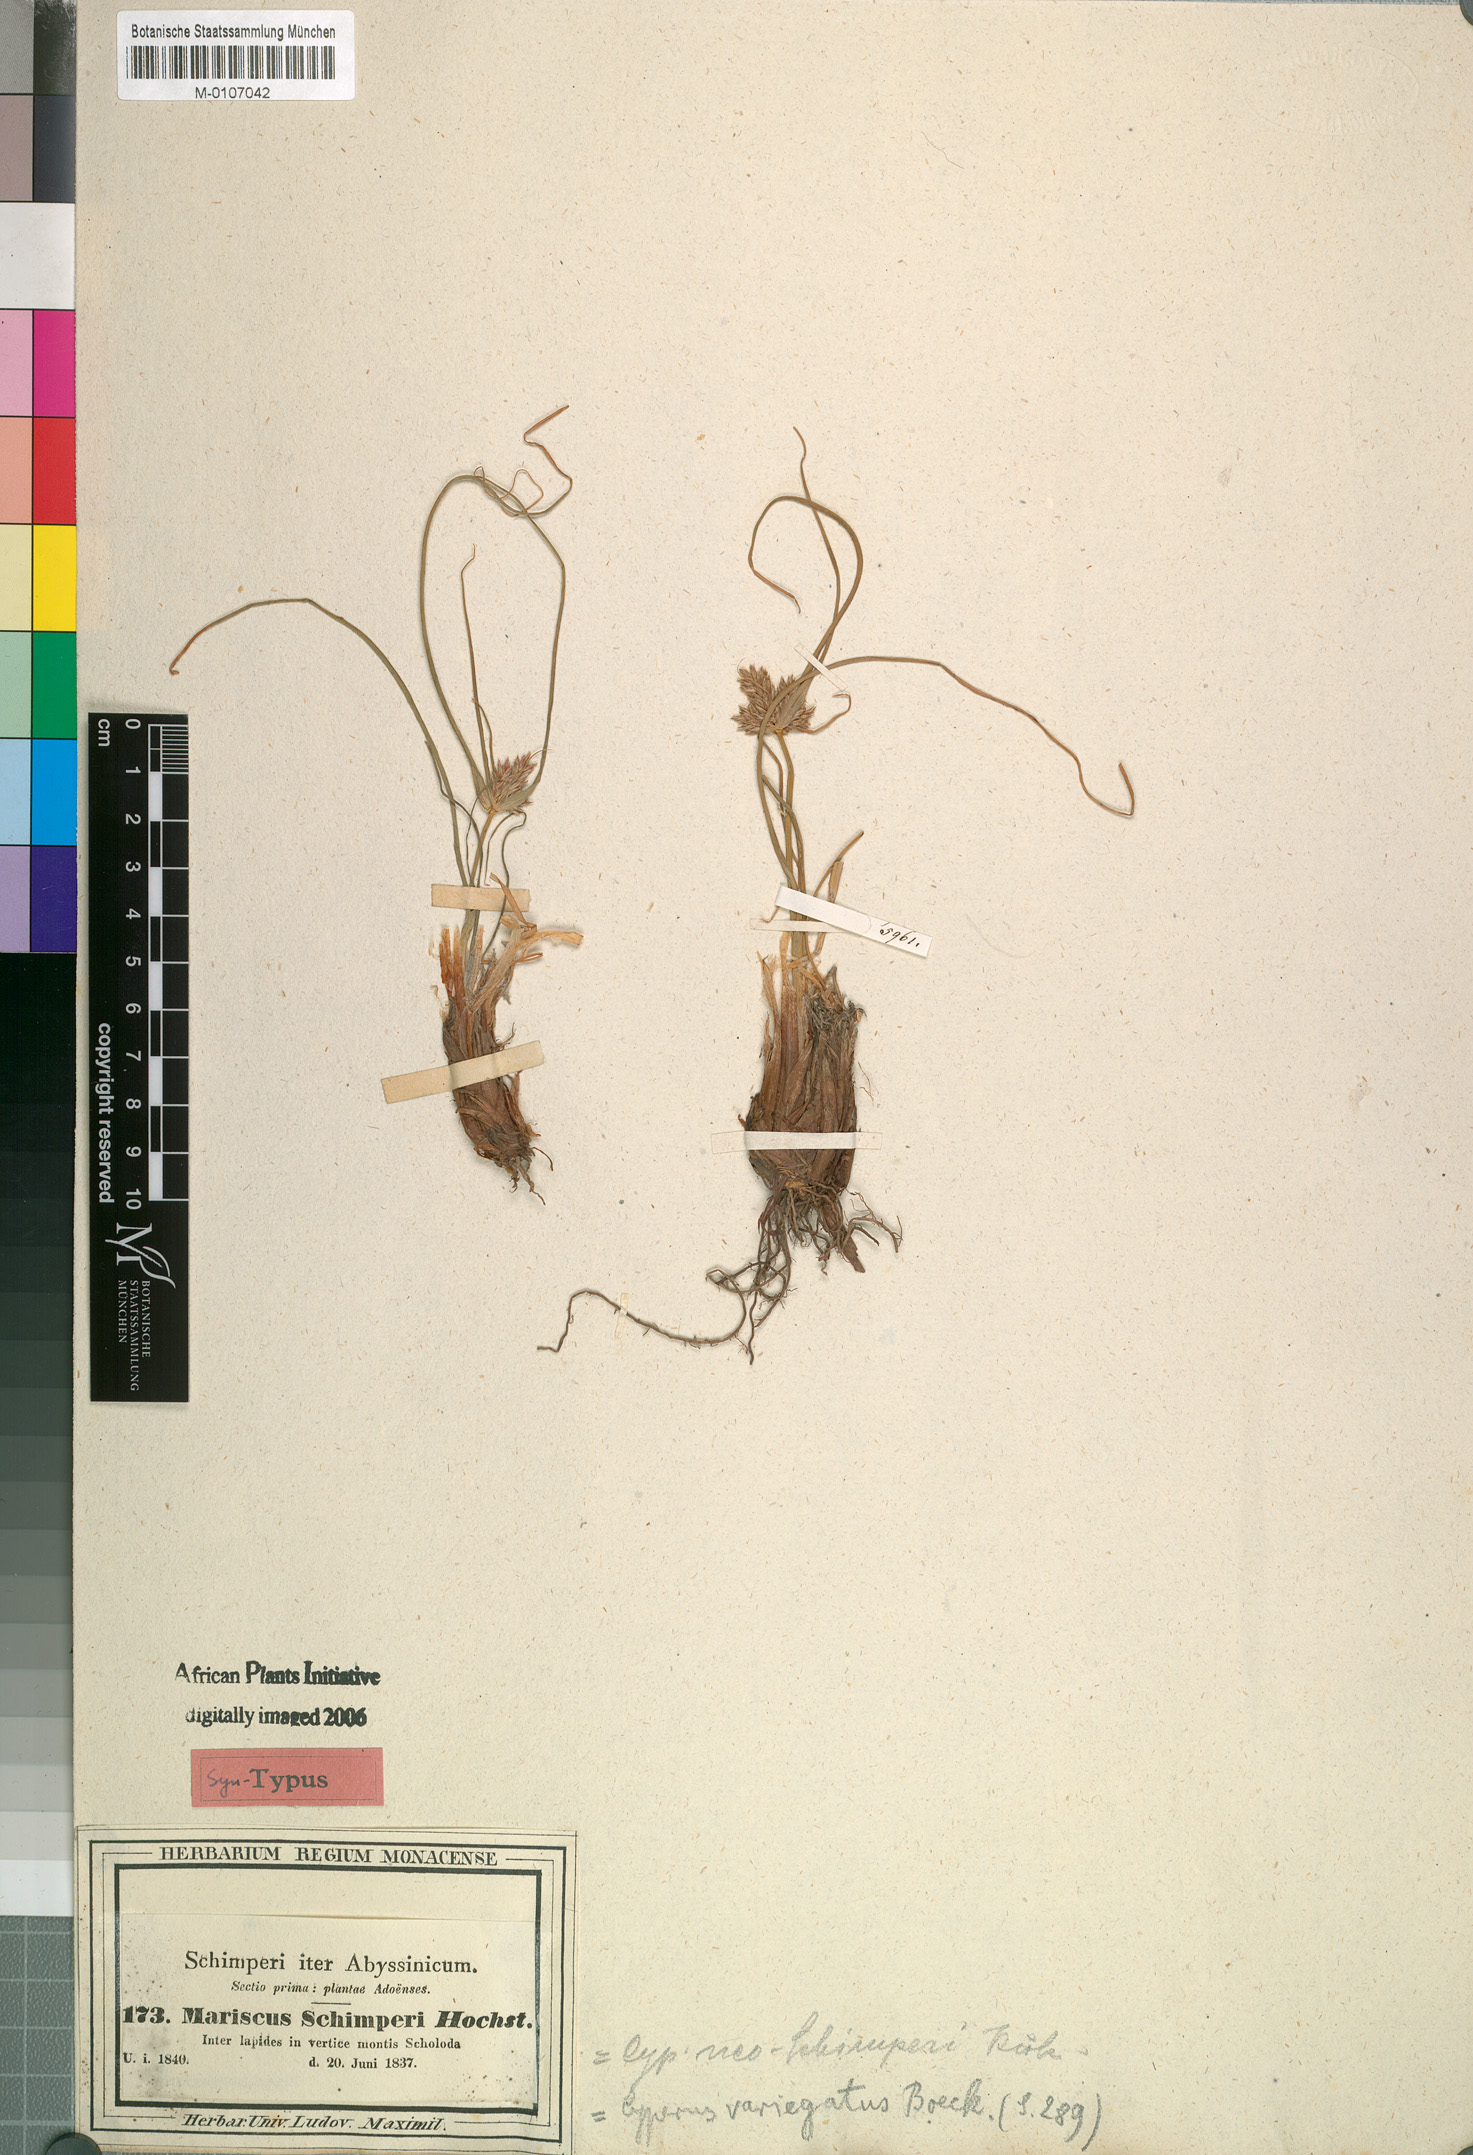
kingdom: Plantae
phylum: Tracheophyta
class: Liliopsida
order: Poales
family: Cyperaceae
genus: Cyperus
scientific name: Cyperus cruentus
